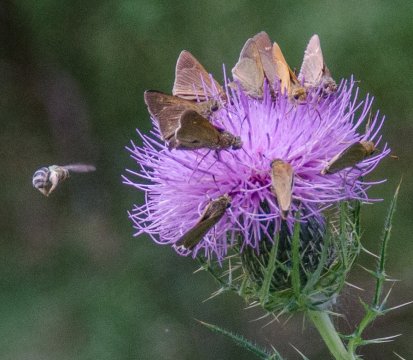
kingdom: Animalia
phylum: Arthropoda
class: Insecta
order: Lepidoptera
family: Hesperiidae
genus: Polites
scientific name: Polites themistocles
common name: Tawny-edged Skipper
